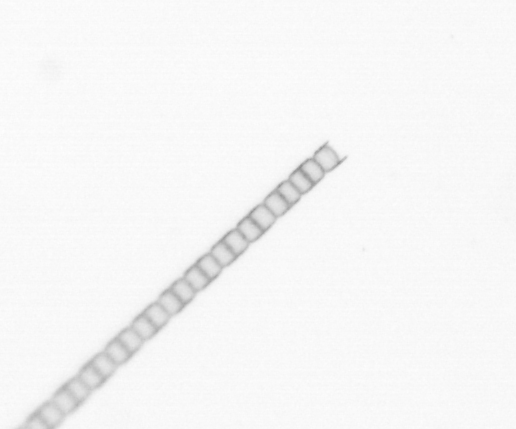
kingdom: Chromista
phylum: Ochrophyta
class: Bacillariophyceae
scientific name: Bacillariophyceae
